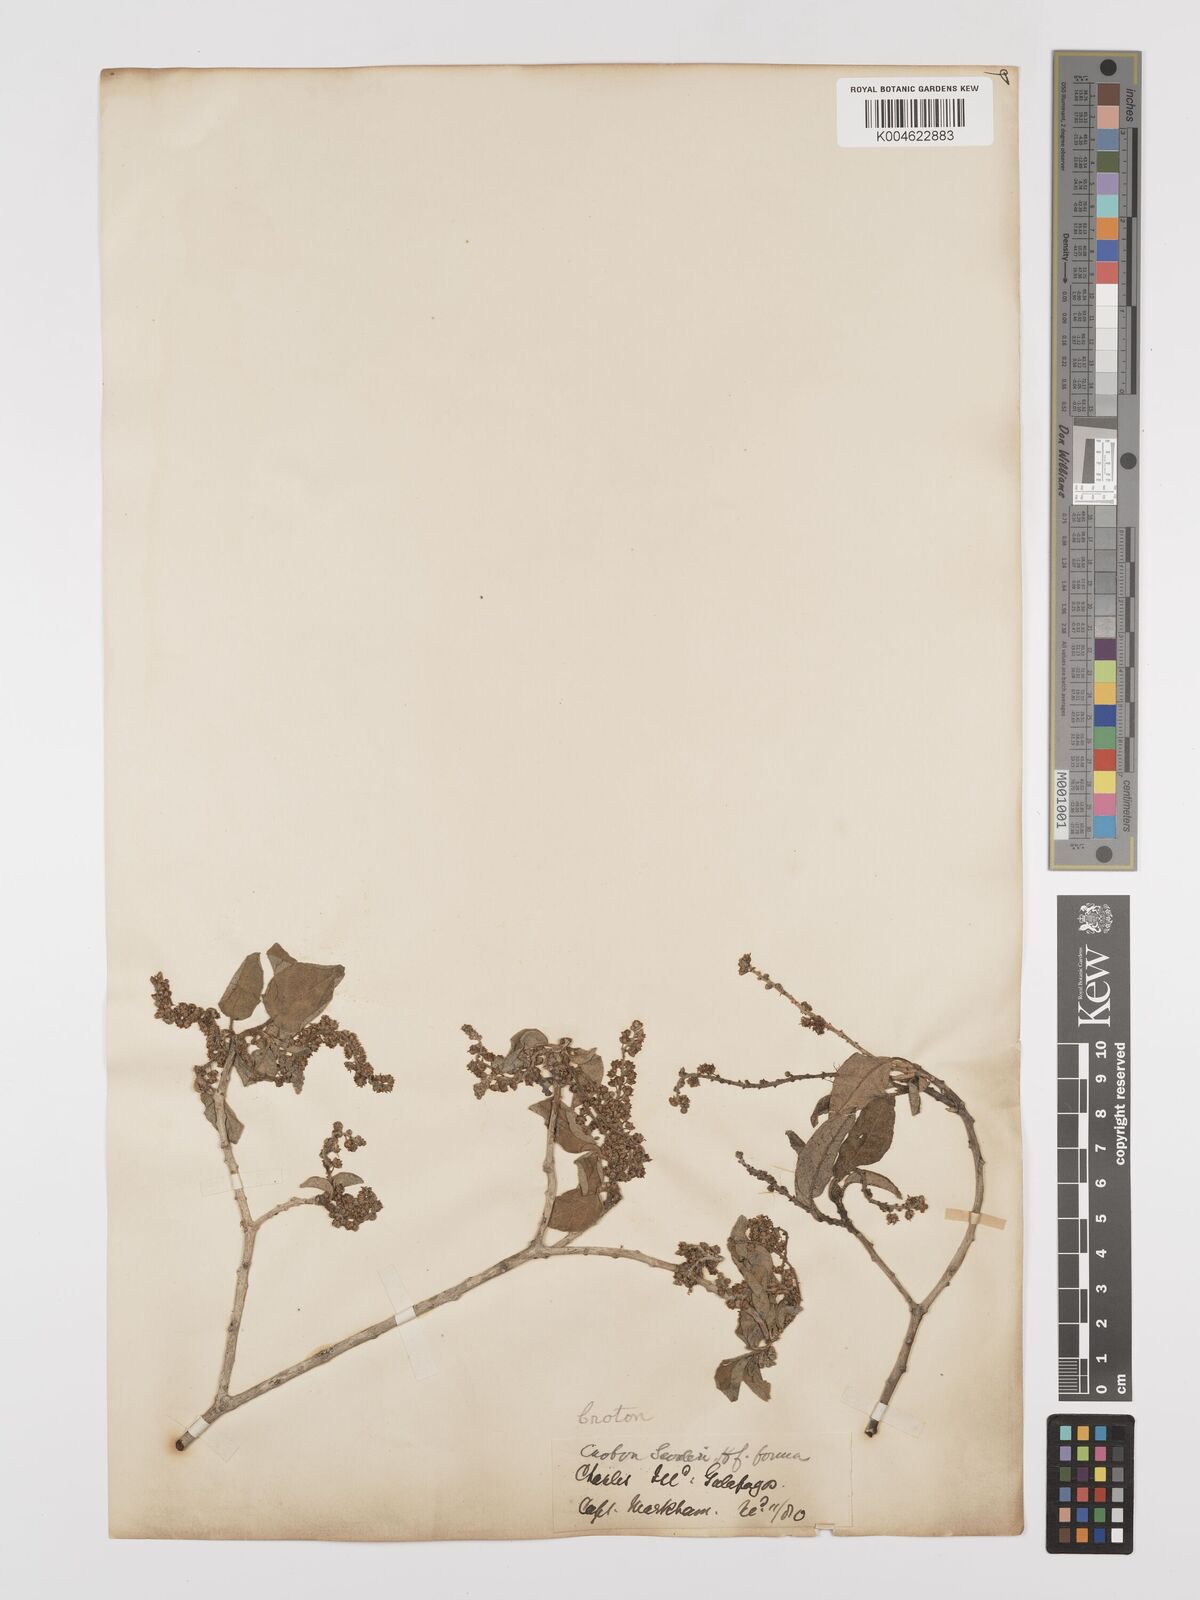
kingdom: Plantae
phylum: Tracheophyta
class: Magnoliopsida
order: Malpighiales
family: Euphorbiaceae
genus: Croton
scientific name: Croton scouleri
